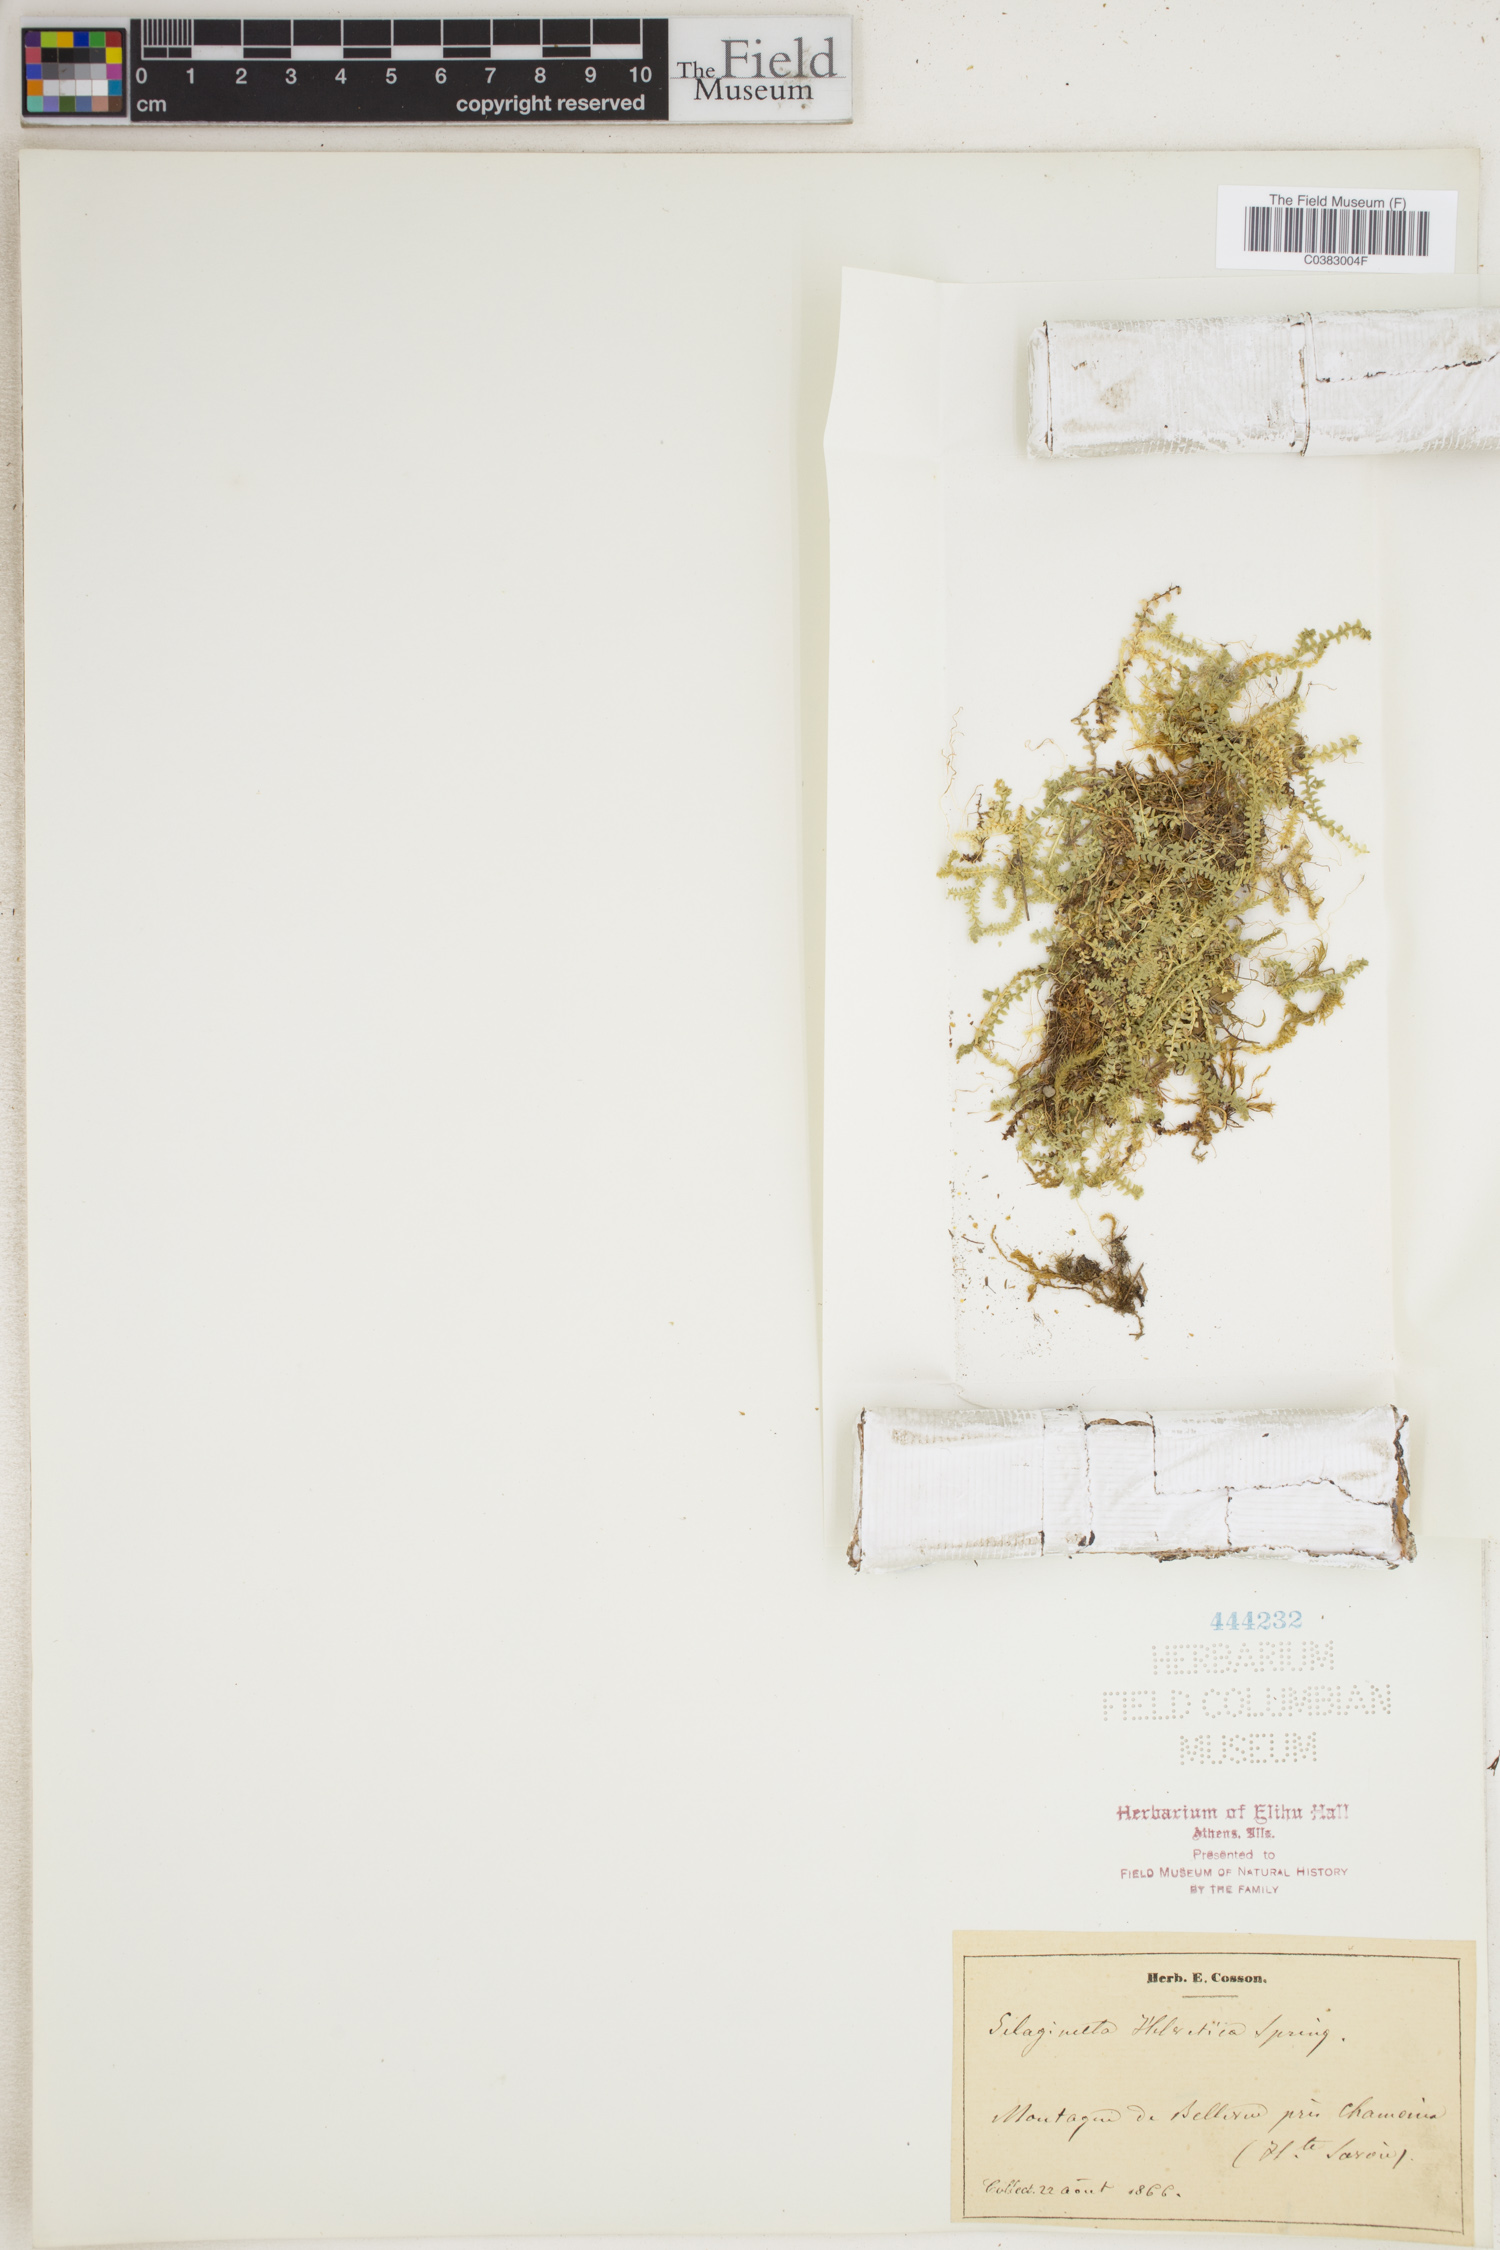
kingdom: Plantae
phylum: Tracheophyta
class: Lycopodiopsida
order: Selaginellales
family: Selaginellaceae
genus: Selaginella
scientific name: Selaginella helvetica
